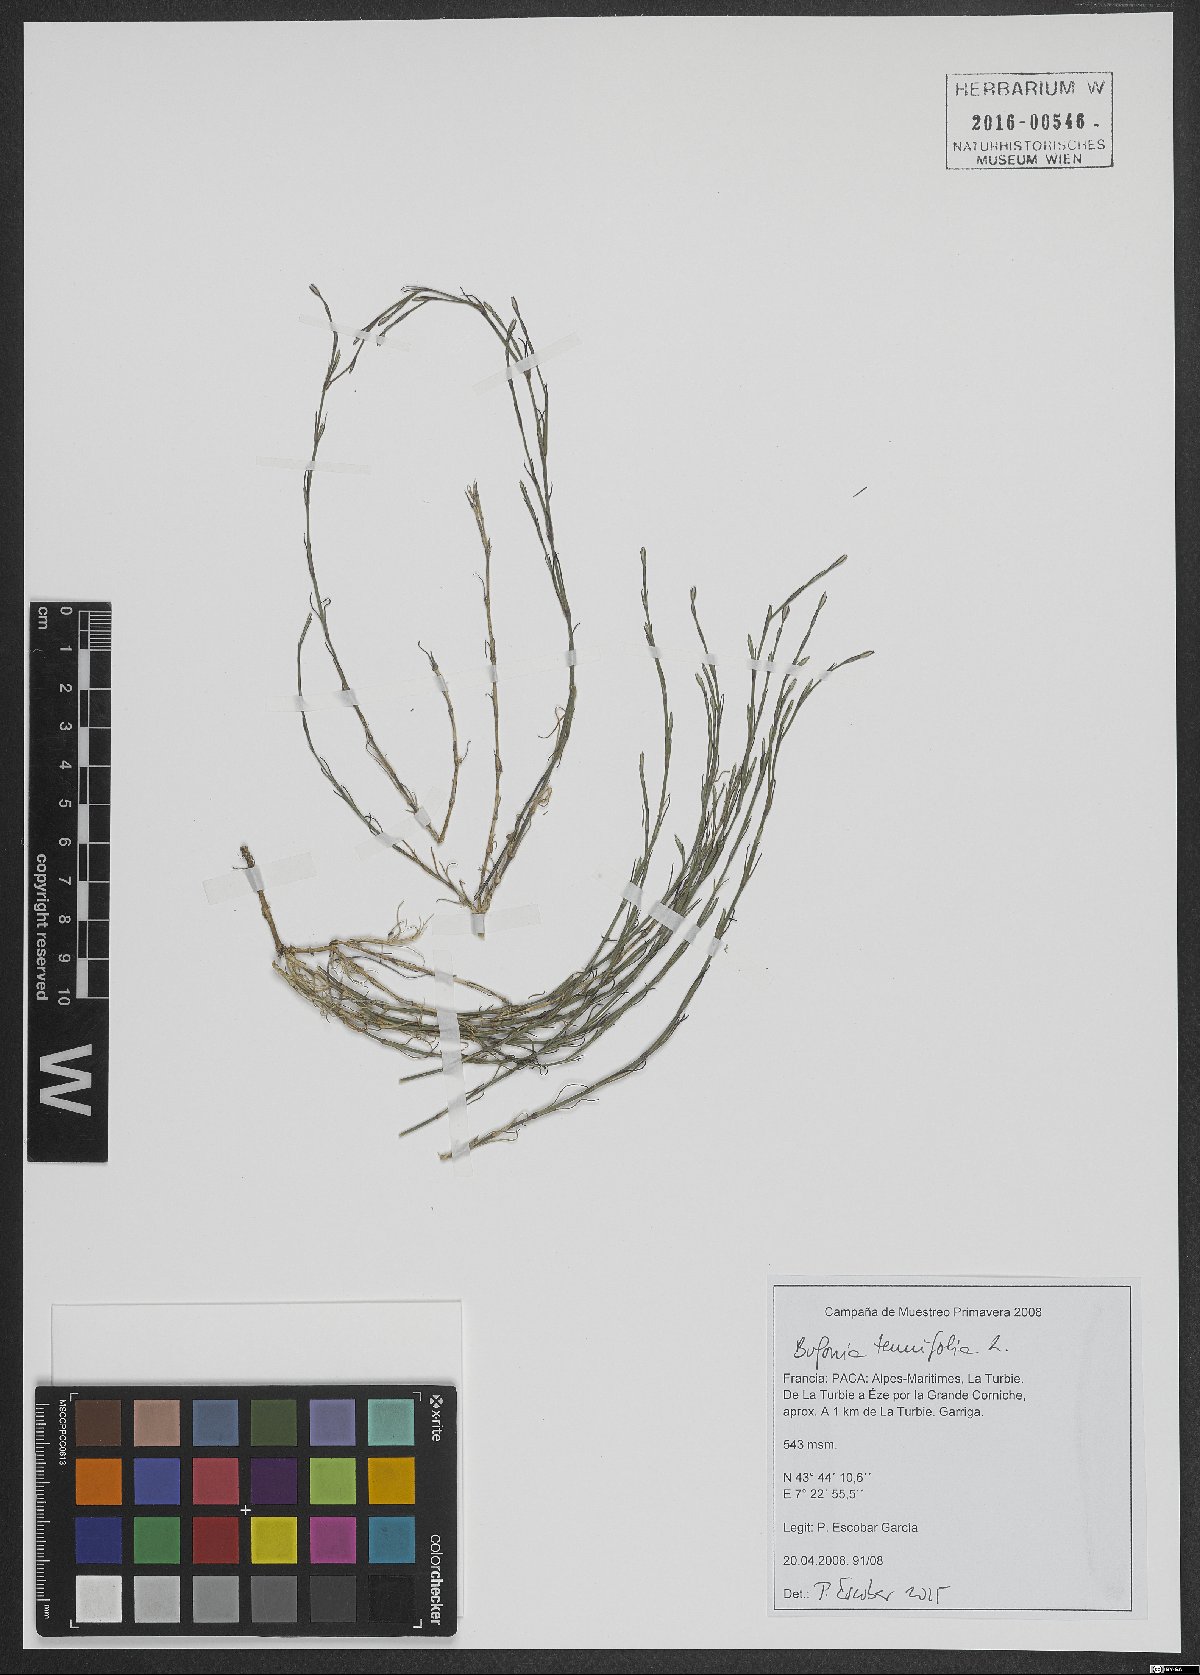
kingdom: Plantae
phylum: Tracheophyta
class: Magnoliopsida
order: Caryophyllales
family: Caryophyllaceae
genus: Bufonia
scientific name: Bufonia tenuifolia
